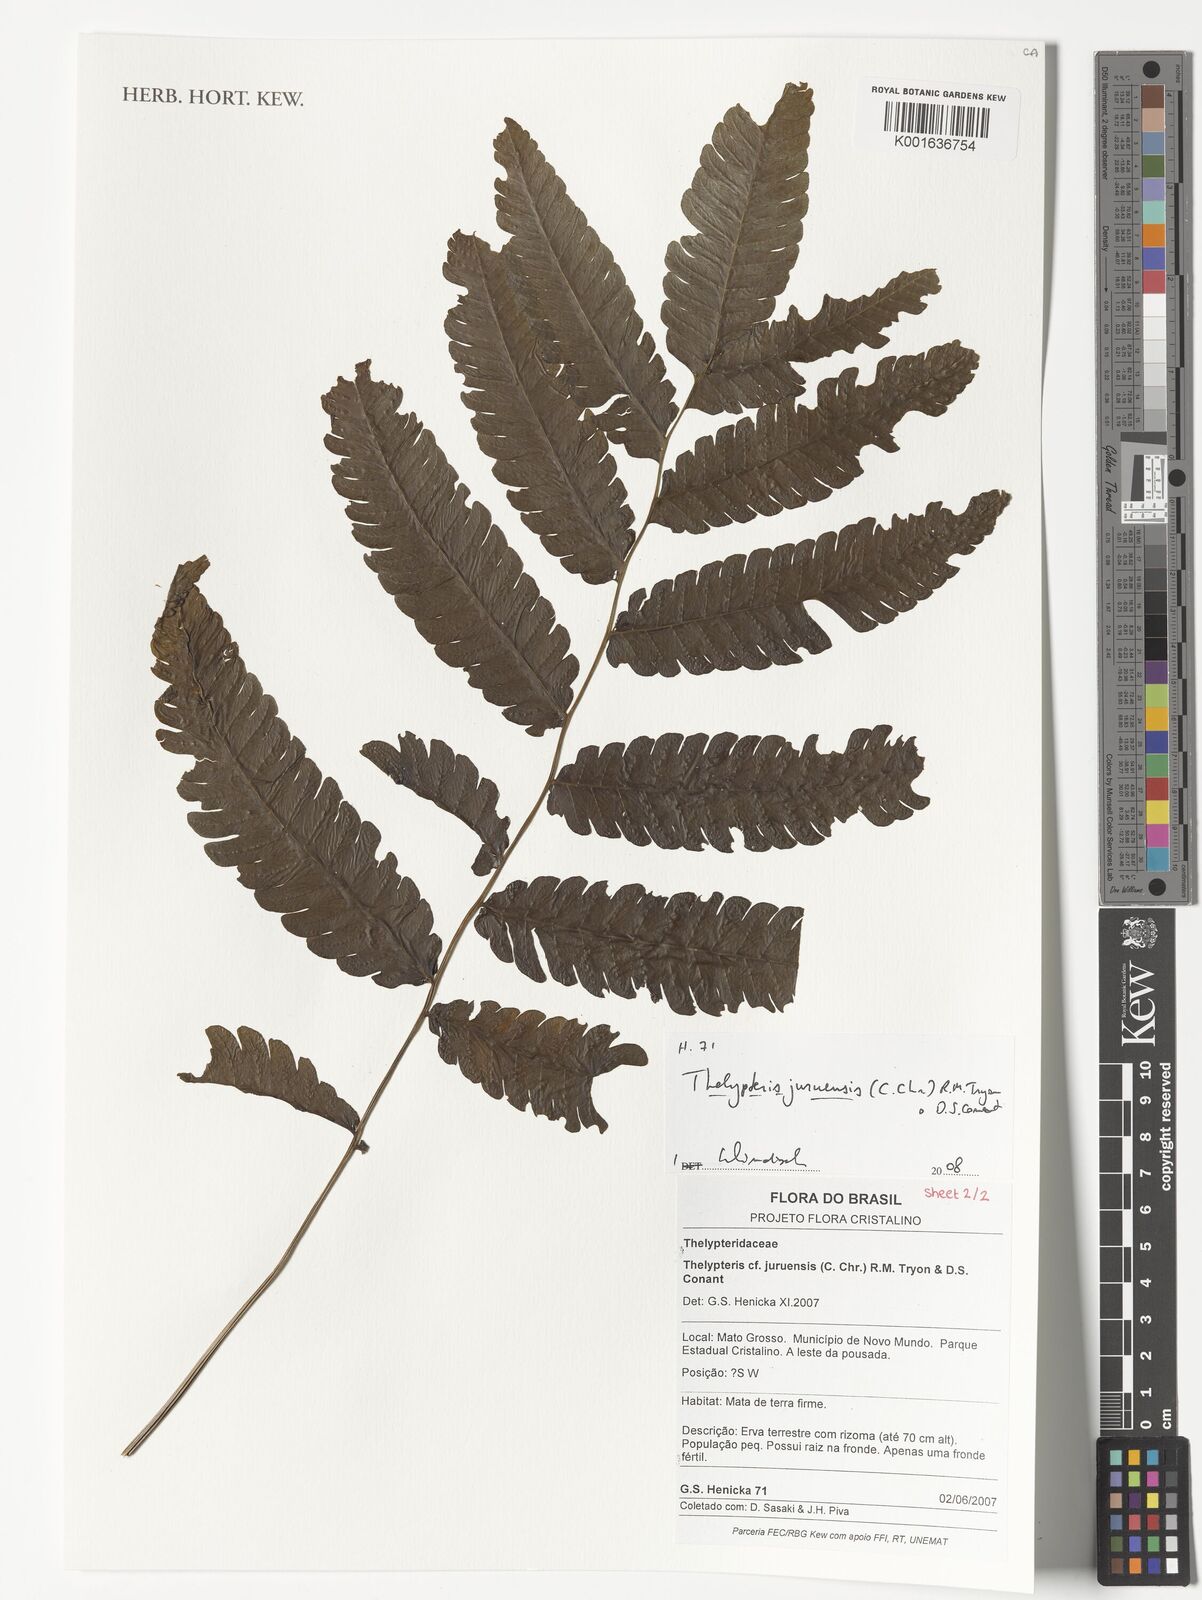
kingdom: Plantae
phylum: Tracheophyta
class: Polypodiopsida
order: Polypodiales
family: Thelypteridaceae
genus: Goniopteris
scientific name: Goniopteris juruensis
